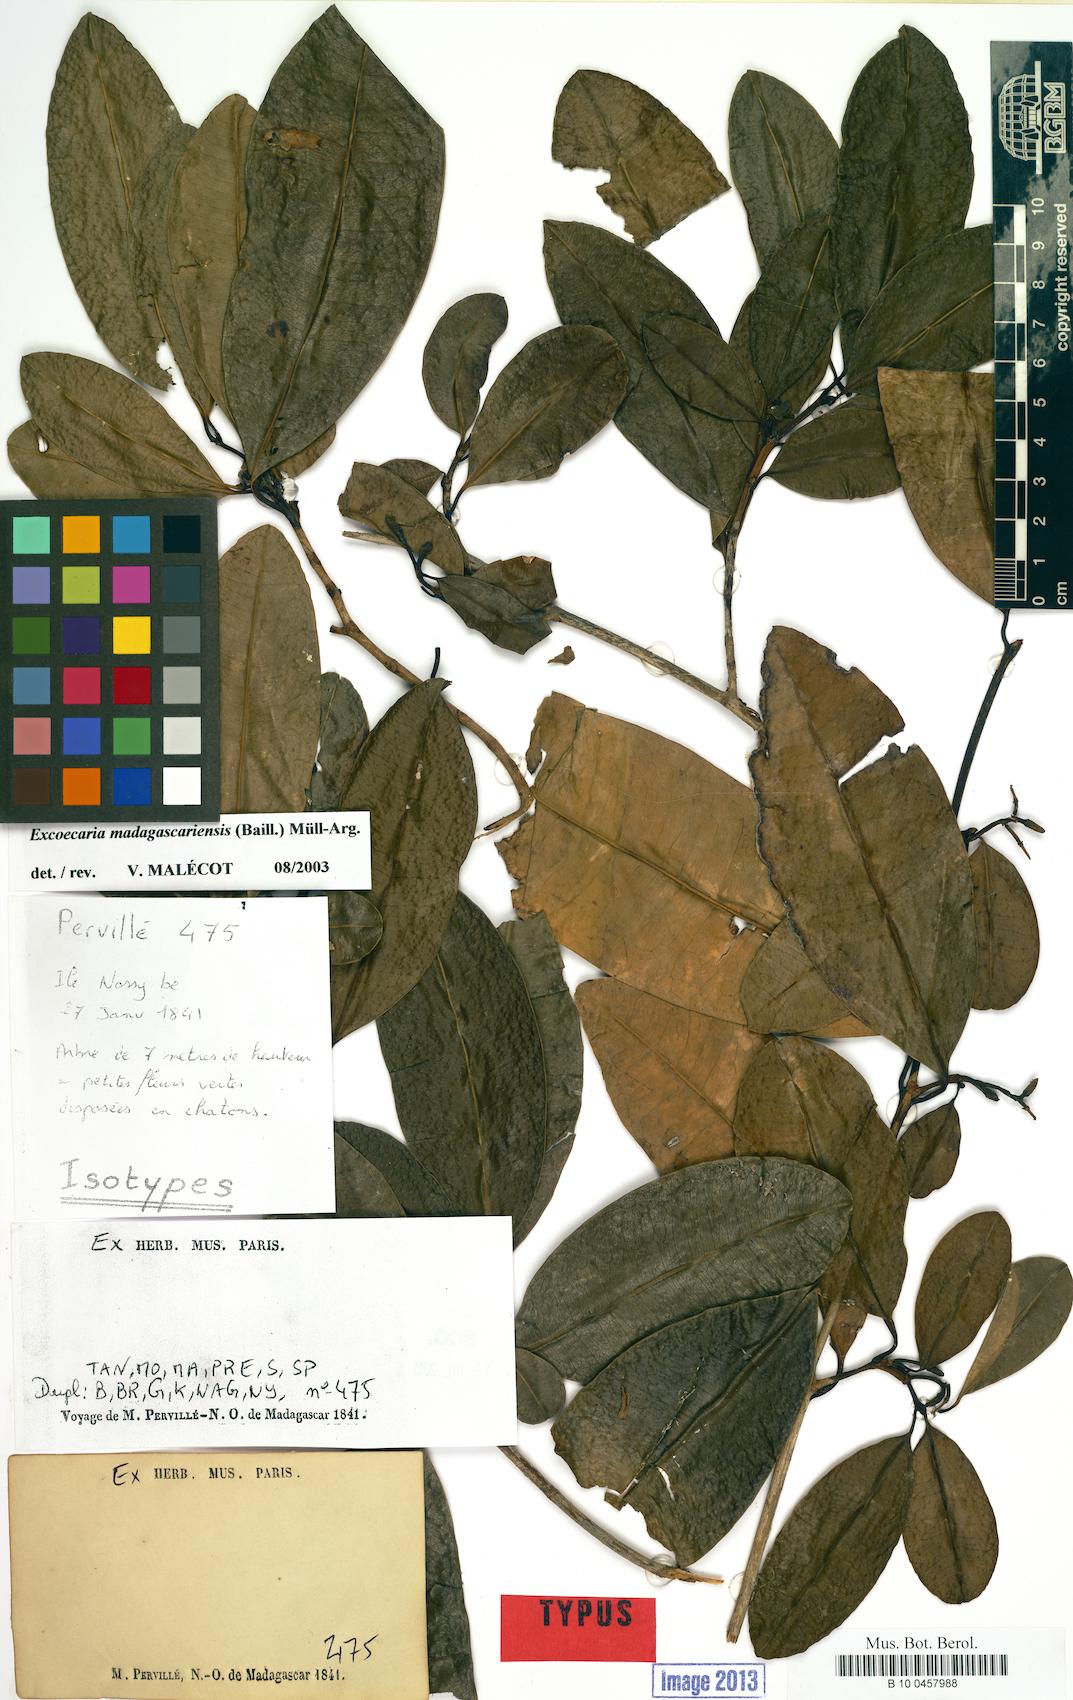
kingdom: Plantae
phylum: Tracheophyta
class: Magnoliopsida
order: Malpighiales
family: Euphorbiaceae
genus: Excoecaria
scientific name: Excoecaria madagascariensis
